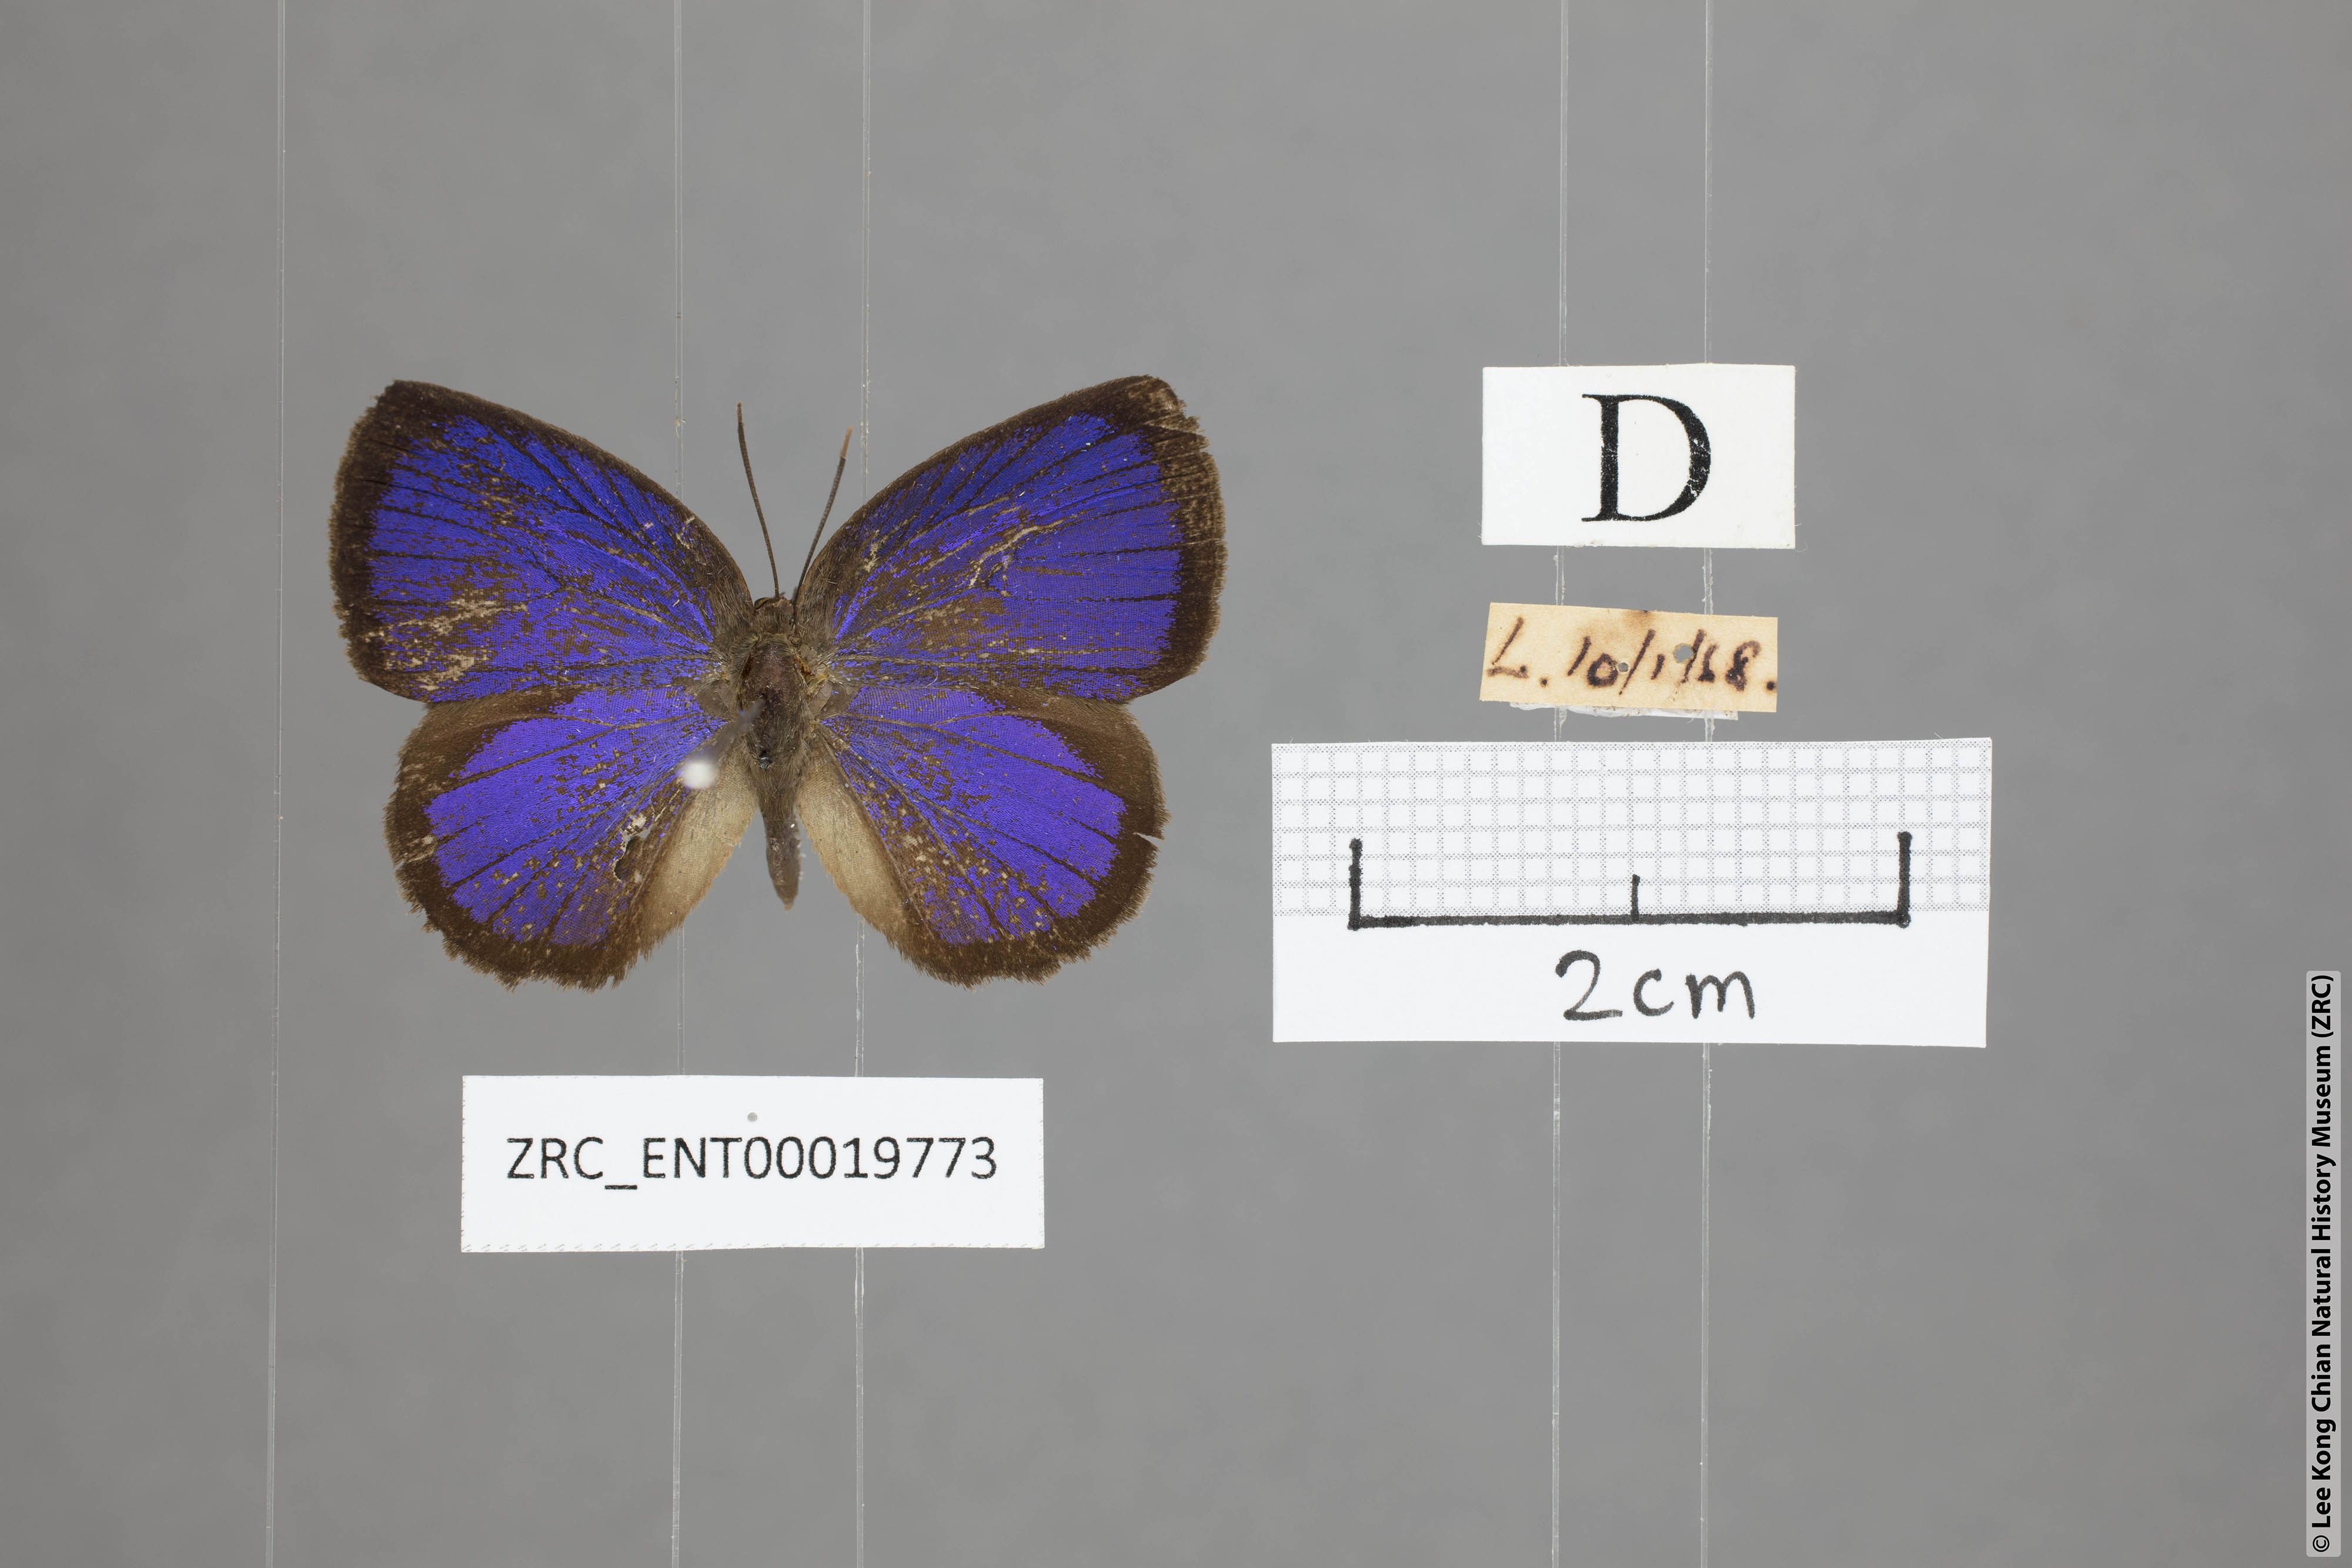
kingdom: Animalia
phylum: Arthropoda
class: Insecta
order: Lepidoptera
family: Lycaenidae
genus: Arhopala
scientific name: Arhopala perimuta
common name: Yellowdisc oakblue
